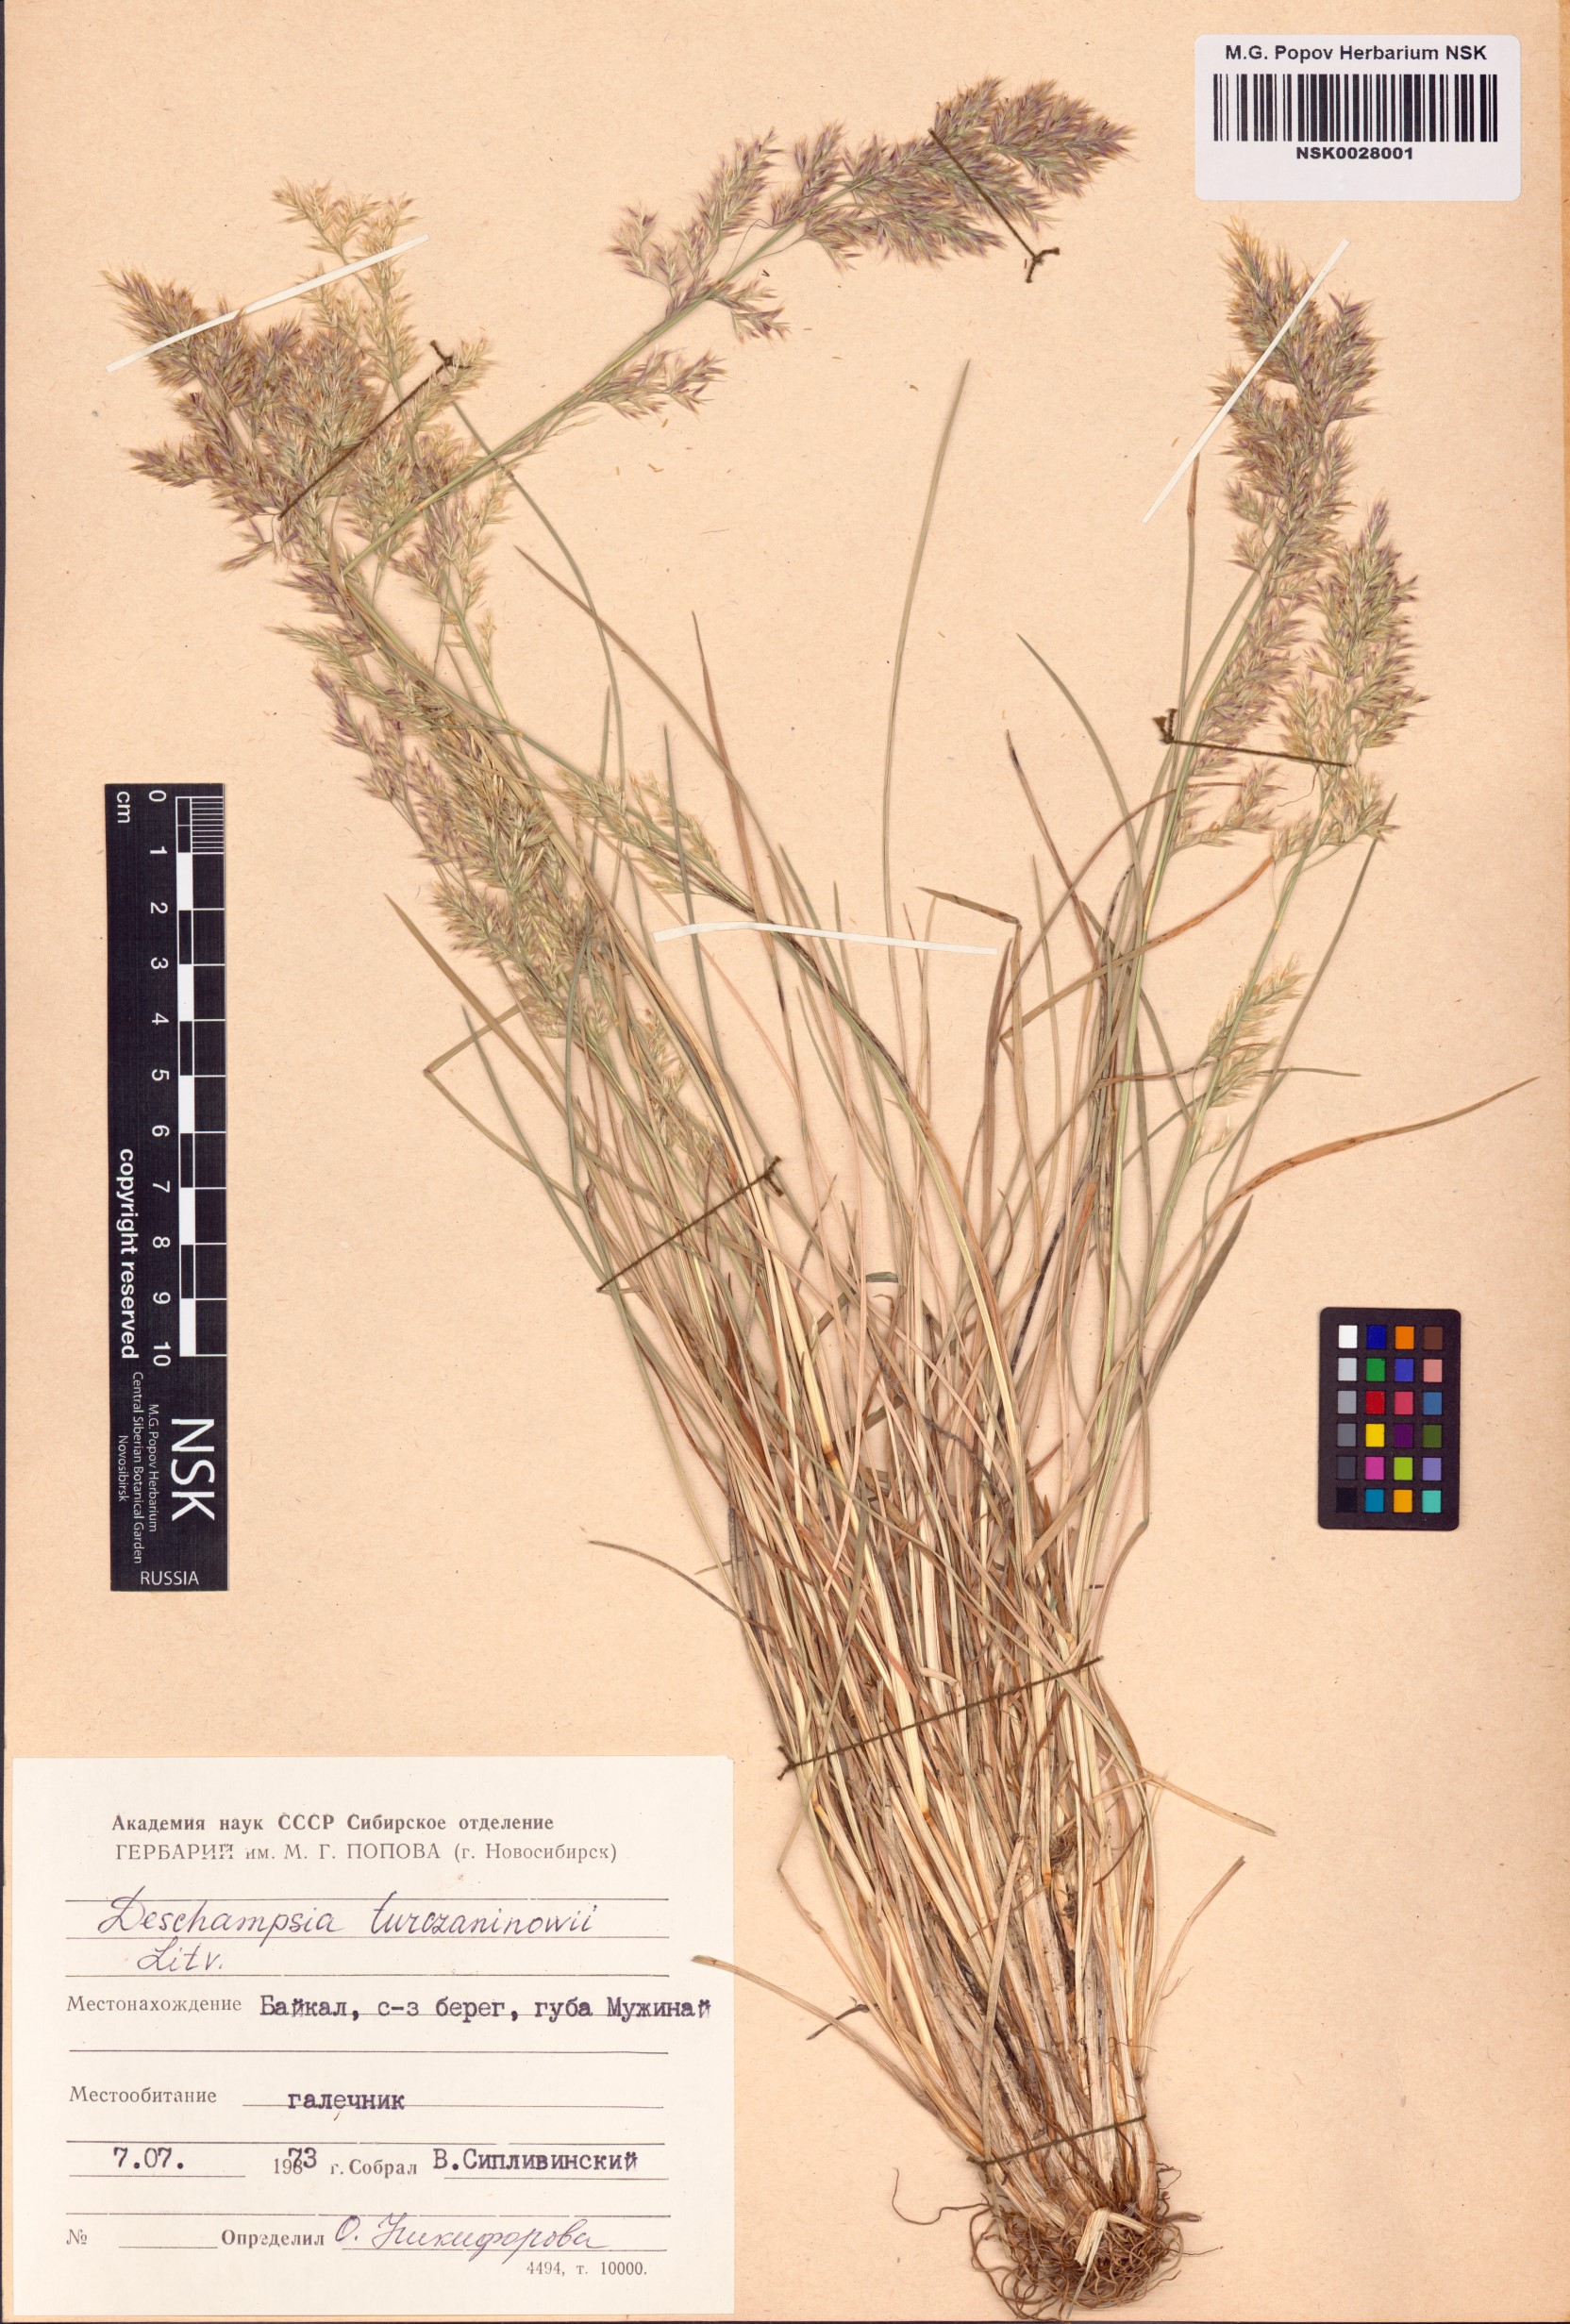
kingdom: Plantae
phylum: Tracheophyta
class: Liliopsida
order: Poales
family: Poaceae
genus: Deschampsia
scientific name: Deschampsia cespitosa
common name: Tufted hair-grass
